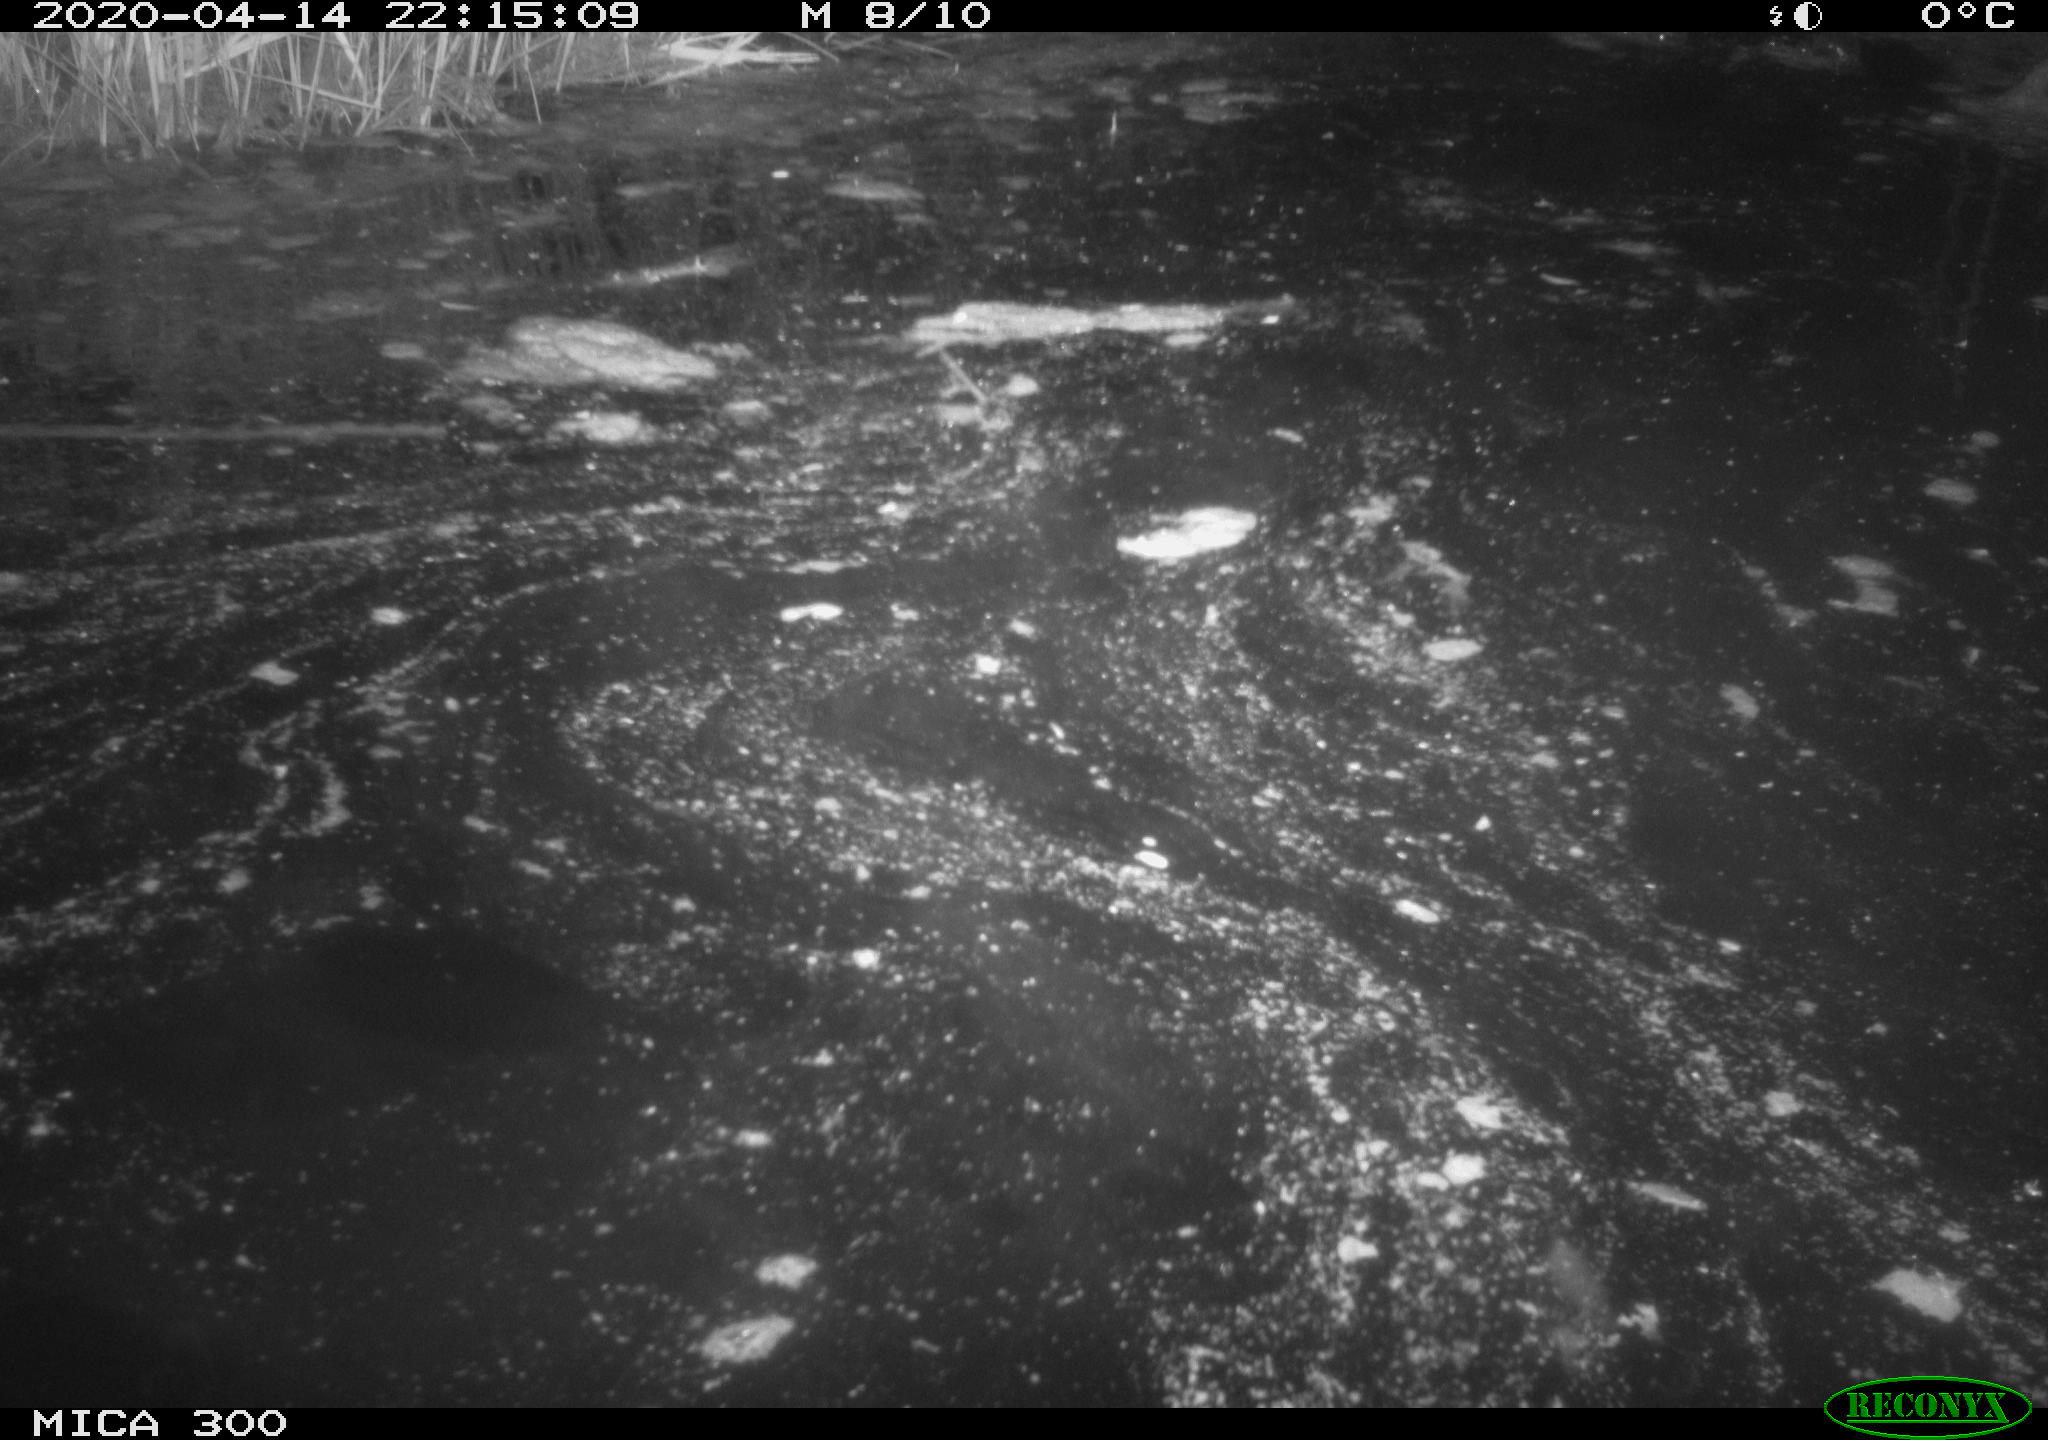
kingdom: Animalia
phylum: Chordata
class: Mammalia
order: Rodentia
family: Castoridae
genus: Castor
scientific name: Castor fiber
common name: Eurasian beaver
